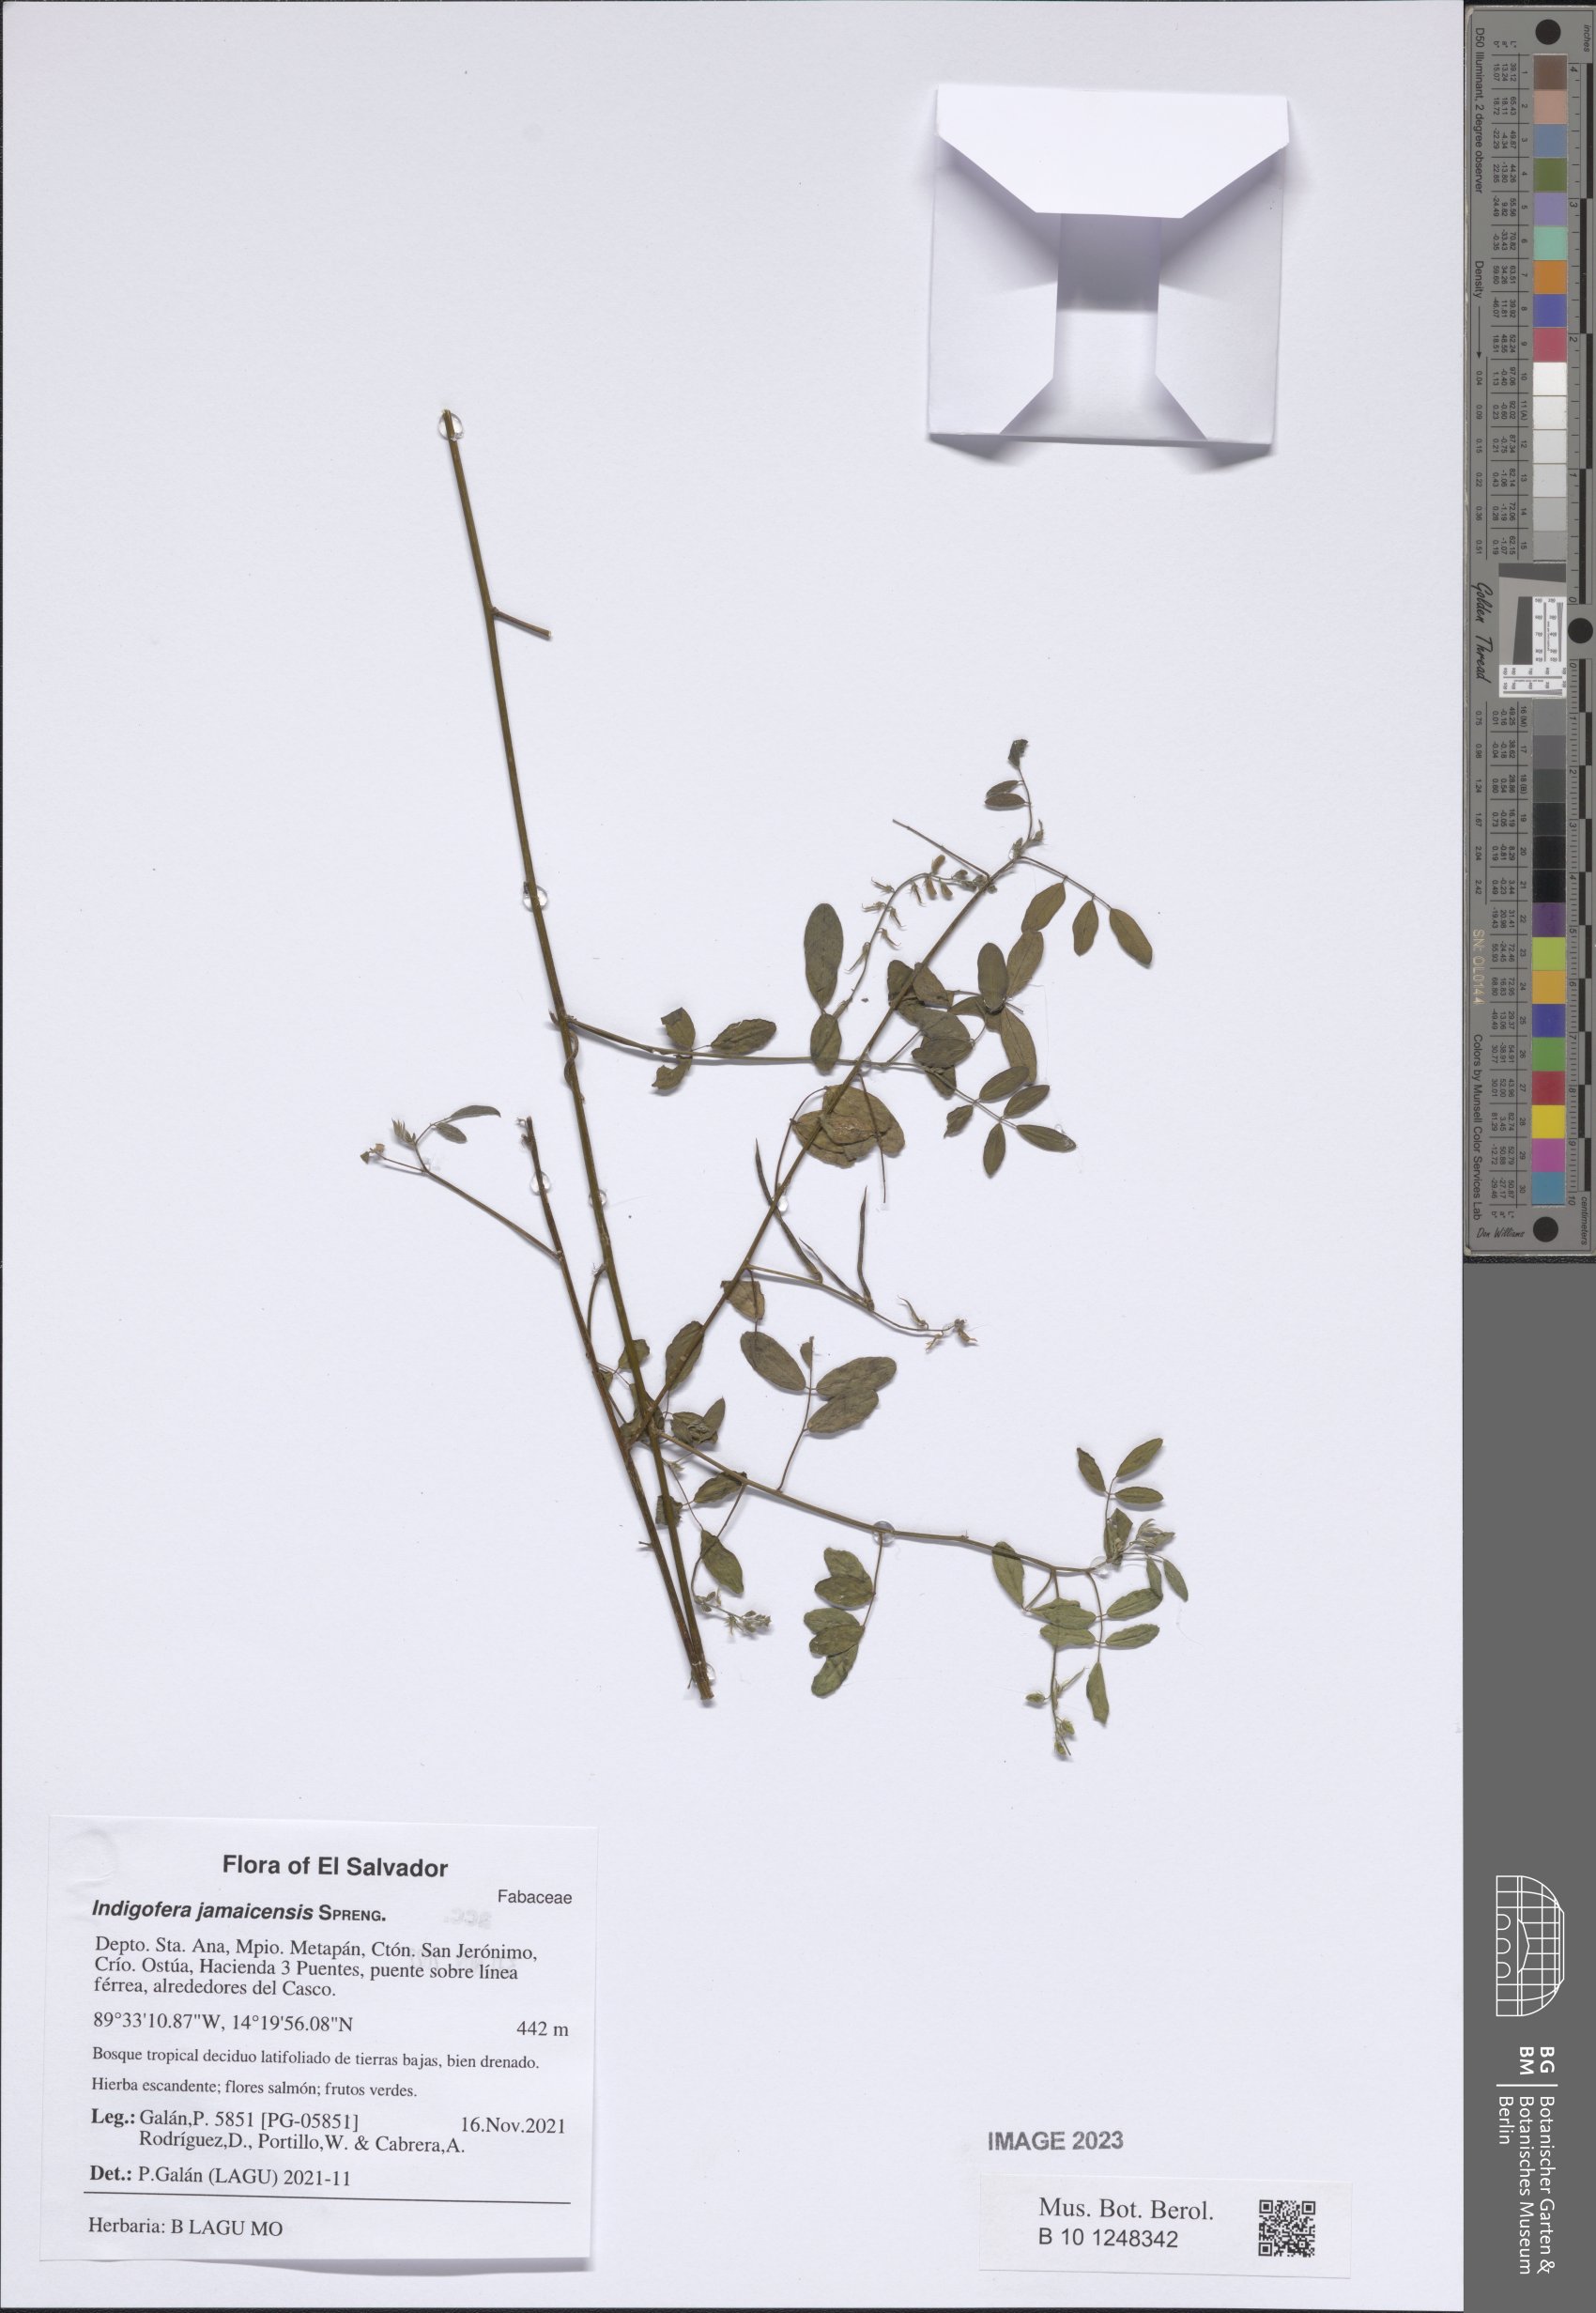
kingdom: Plantae
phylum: Tracheophyta
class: Magnoliopsida
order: Fabales
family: Fabaceae
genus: Indigofera
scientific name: Indigofera subulata
